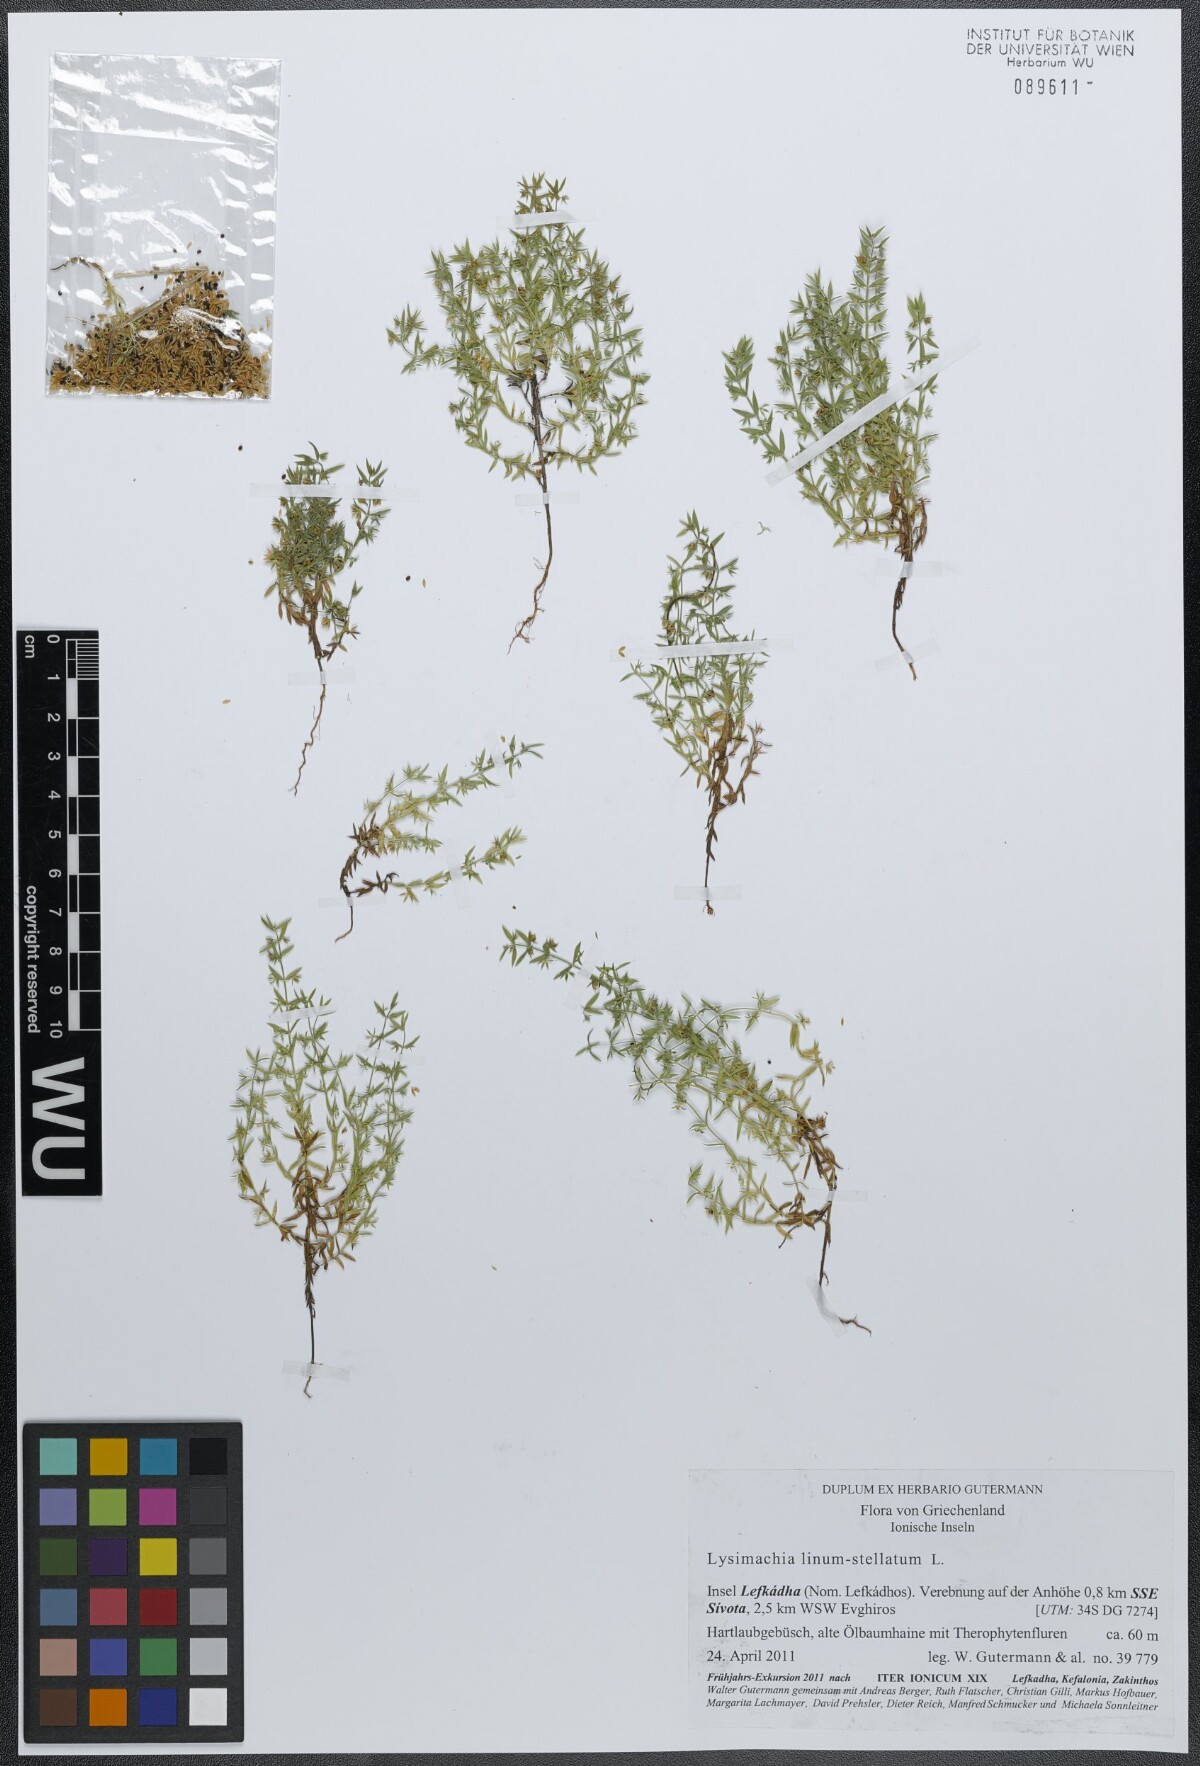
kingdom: Plantae
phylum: Tracheophyta
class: Magnoliopsida
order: Ericales
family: Primulaceae
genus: Lysimachia
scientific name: Lysimachia linum-stellatum
